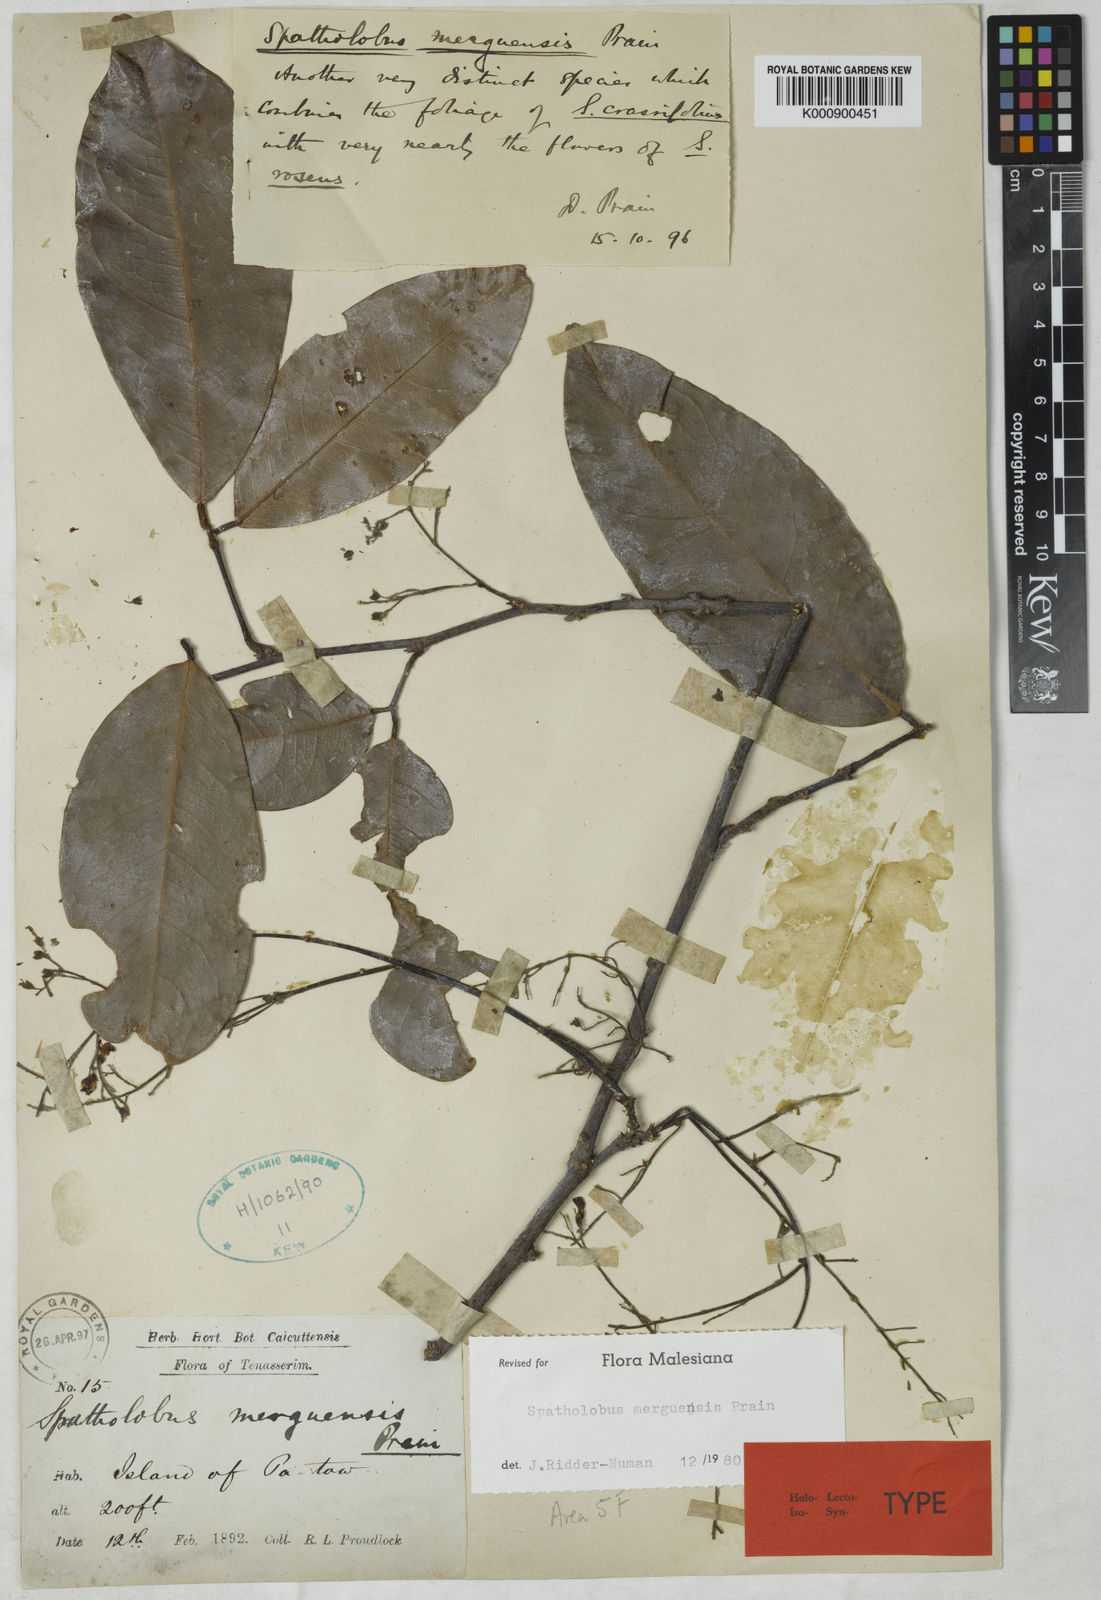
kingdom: Plantae
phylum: Tracheophyta
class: Magnoliopsida
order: Fabales
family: Fabaceae
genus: Spatholobus
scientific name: Spatholobus
